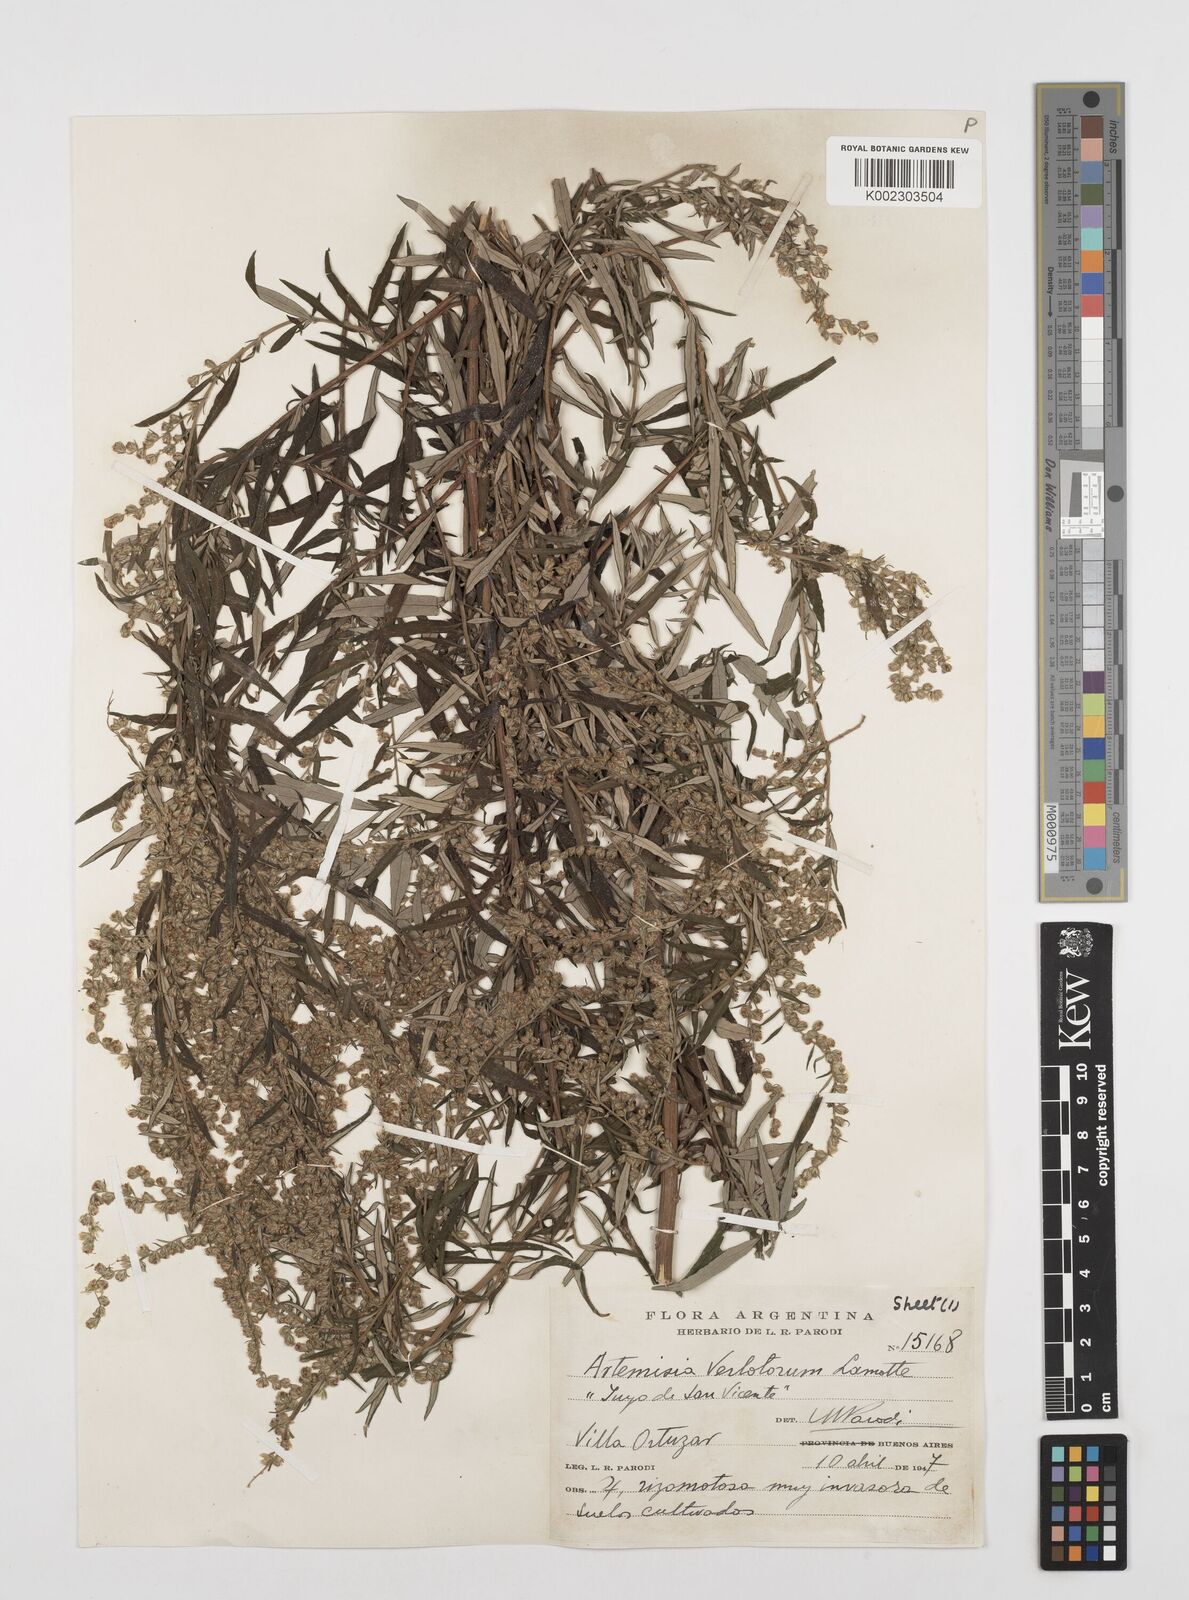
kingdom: Plantae
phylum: Tracheophyta
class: Magnoliopsida
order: Asterales
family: Asteraceae
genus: Artemisia
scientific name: Artemisia verlotiorum
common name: Chinese mugwort
